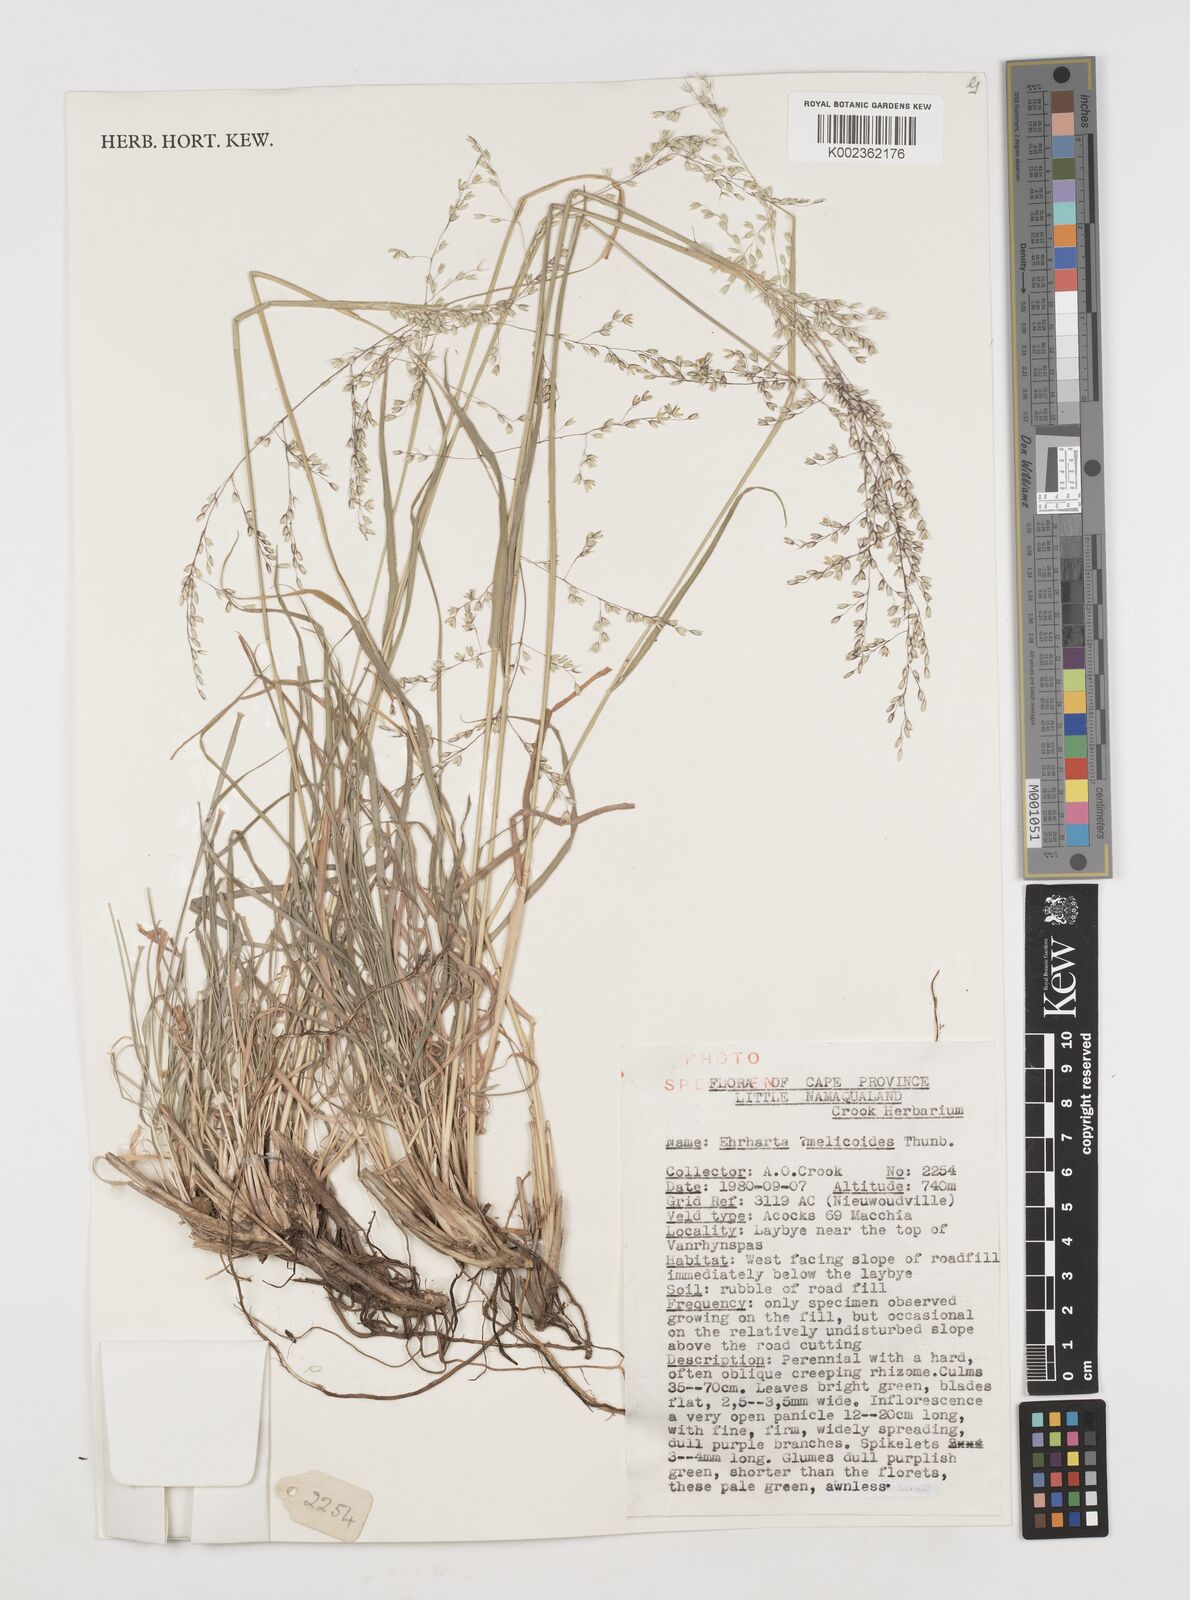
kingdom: Plantae
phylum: Tracheophyta
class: Liliopsida
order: Poales
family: Poaceae
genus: Ehrharta
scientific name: Ehrharta
